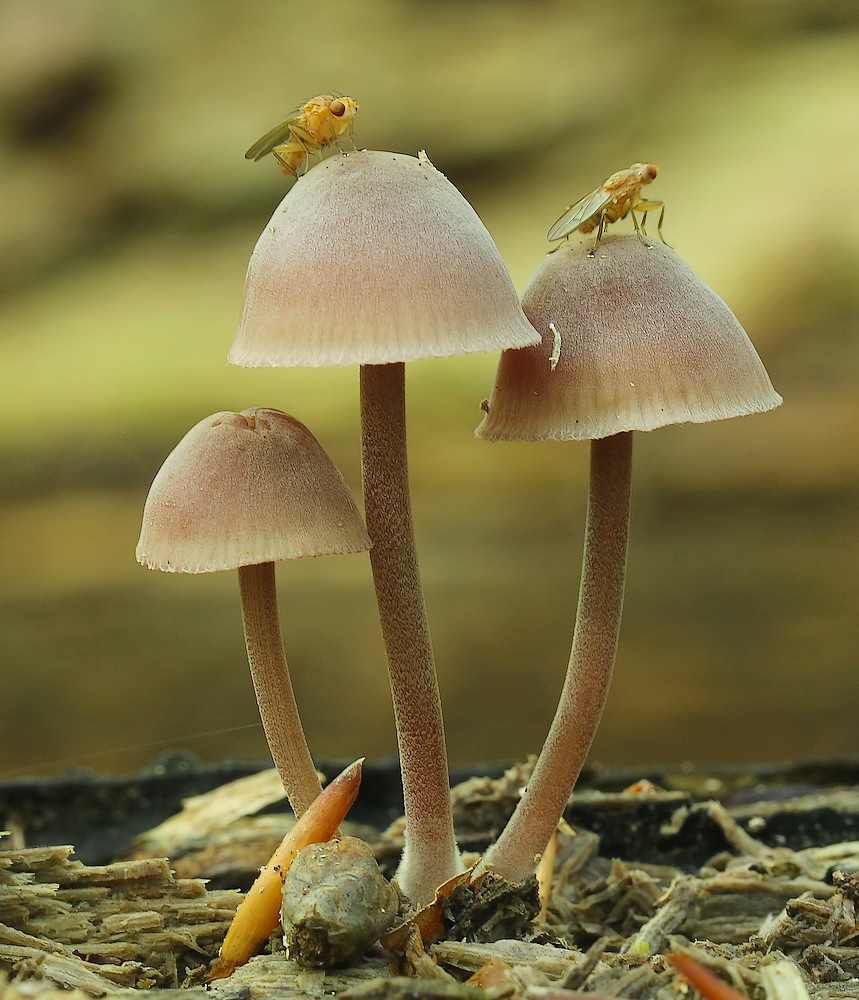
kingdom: Fungi
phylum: Basidiomycota
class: Agaricomycetes
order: Agaricales
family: Mycenaceae
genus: Mycena
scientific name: Mycena haematopus
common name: blødende huesvamp
